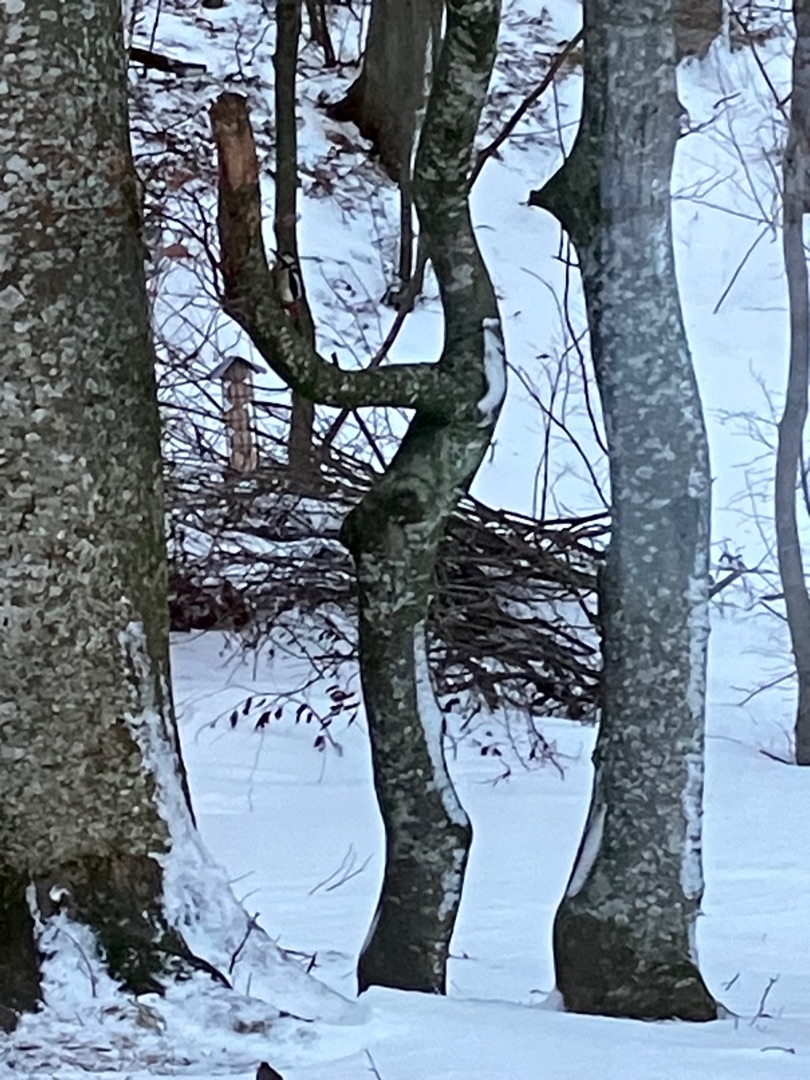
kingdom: Animalia
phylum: Chordata
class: Aves
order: Piciformes
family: Picidae
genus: Dendrocopos
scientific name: Dendrocopos major
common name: Stor flagspætte
